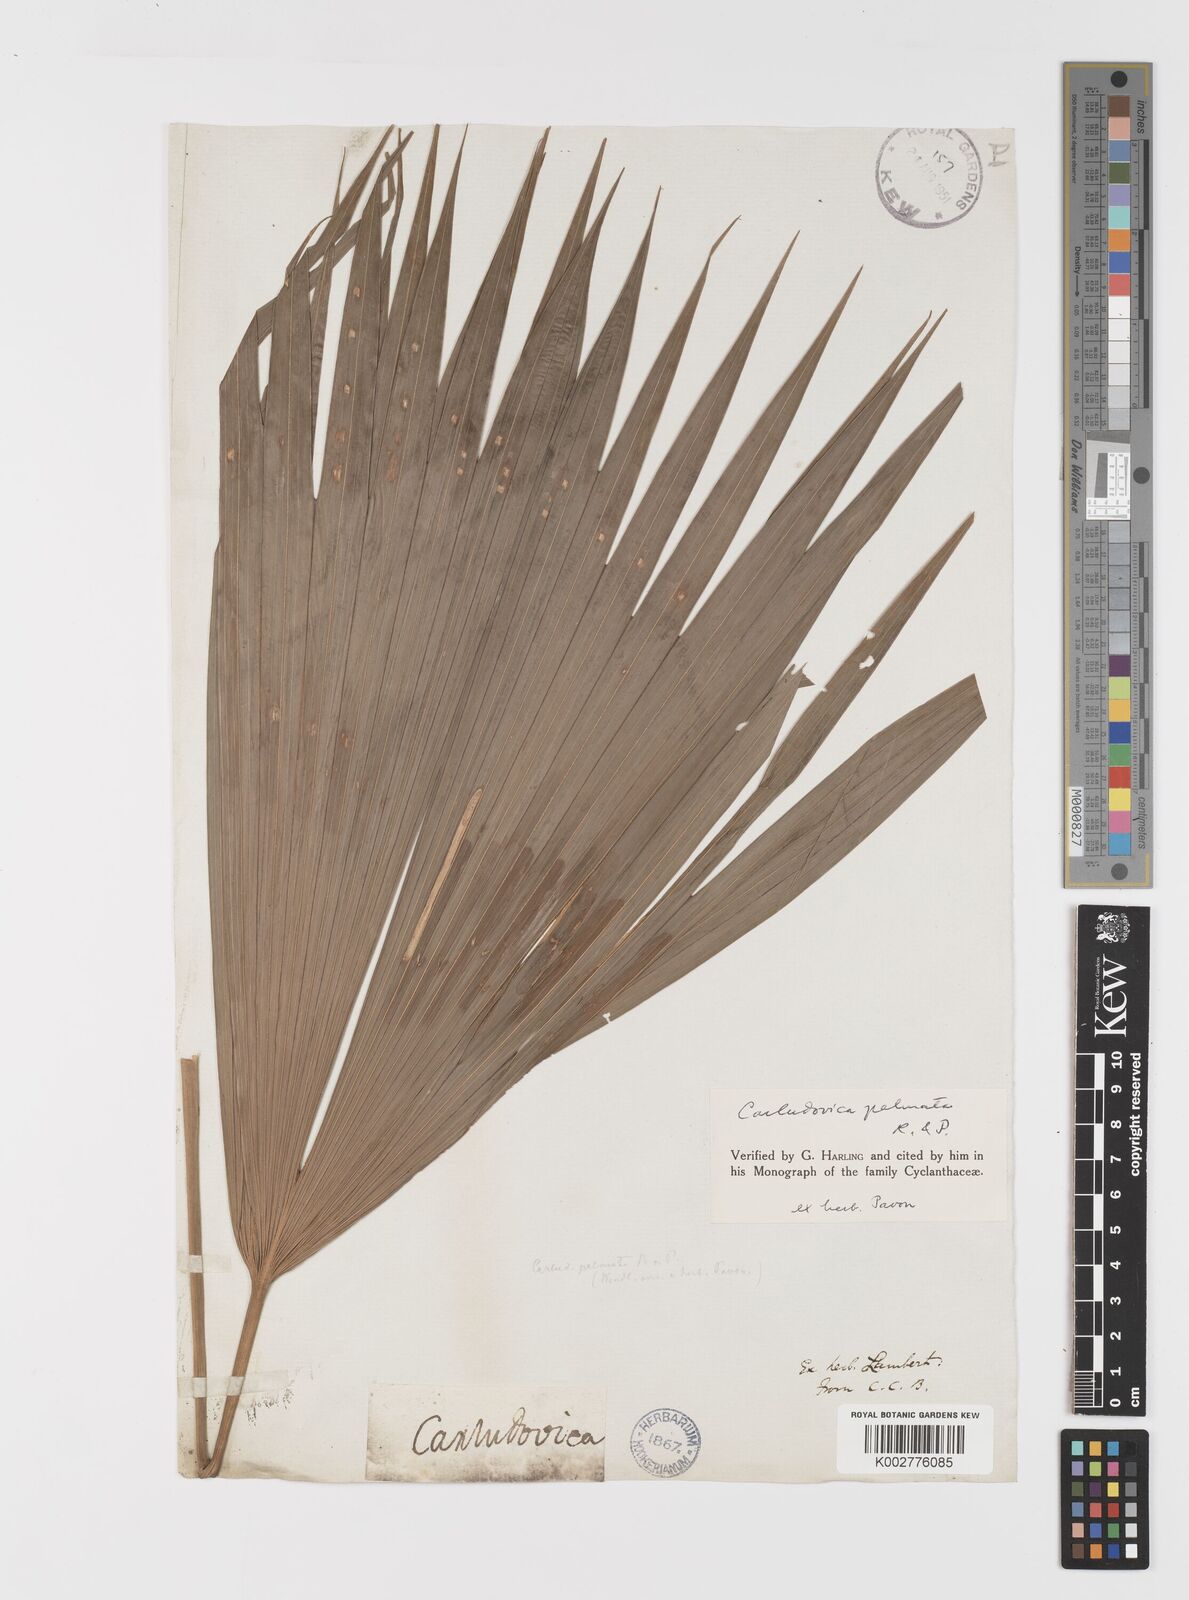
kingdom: Plantae
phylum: Tracheophyta
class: Liliopsida
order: Pandanales
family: Cyclanthaceae
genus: Carludovica
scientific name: Carludovica palmata
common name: Panama hat plant
